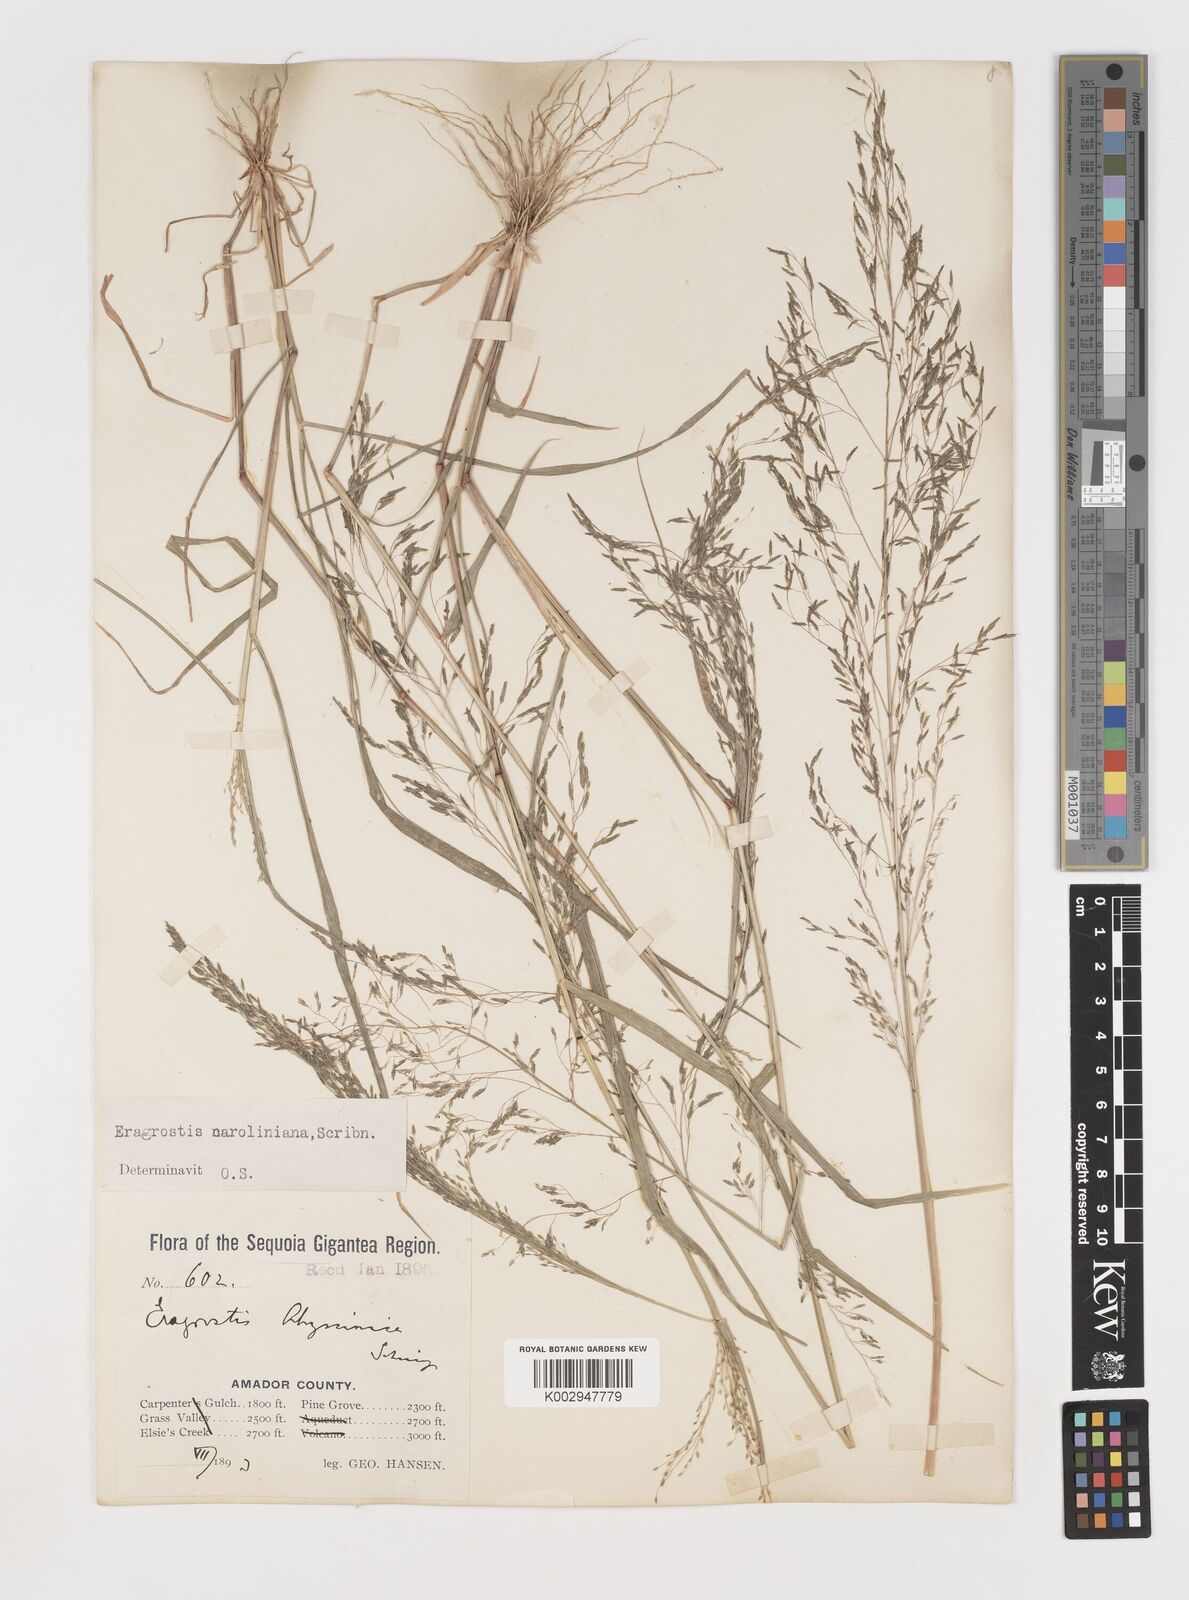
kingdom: Plantae
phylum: Tracheophyta
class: Liliopsida
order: Poales
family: Poaceae
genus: Eragrostis
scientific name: Eragrostis pectinacea
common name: Tufted lovegrass
